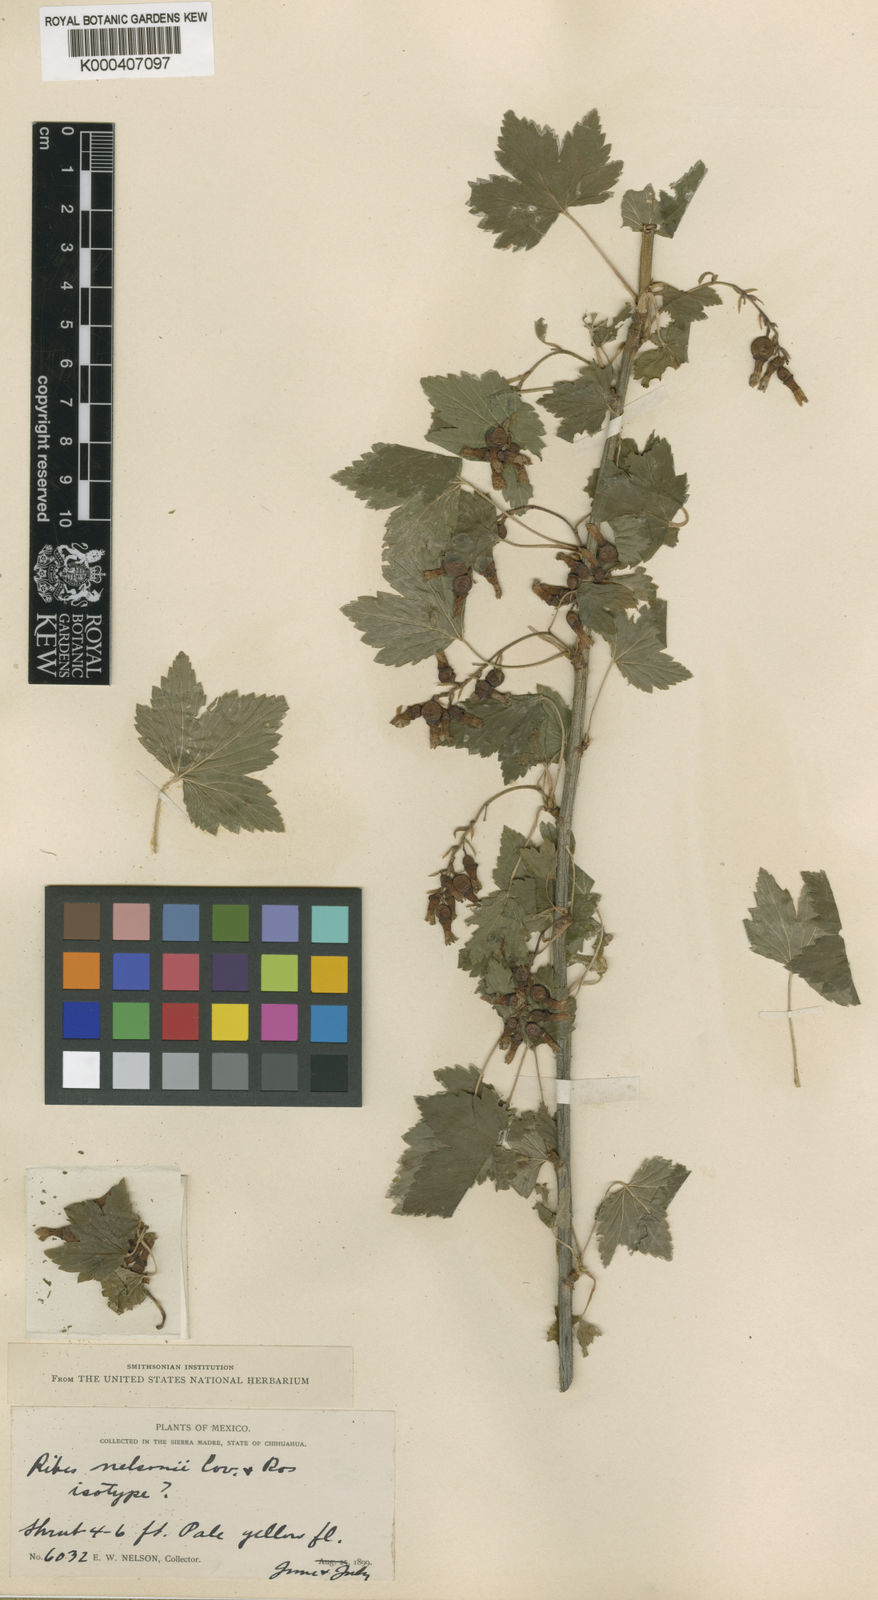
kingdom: Plantae
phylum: Tracheophyta
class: Magnoliopsida
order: Saxifragales
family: Grossulariaceae
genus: Ribes
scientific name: Ribes nelsonii
